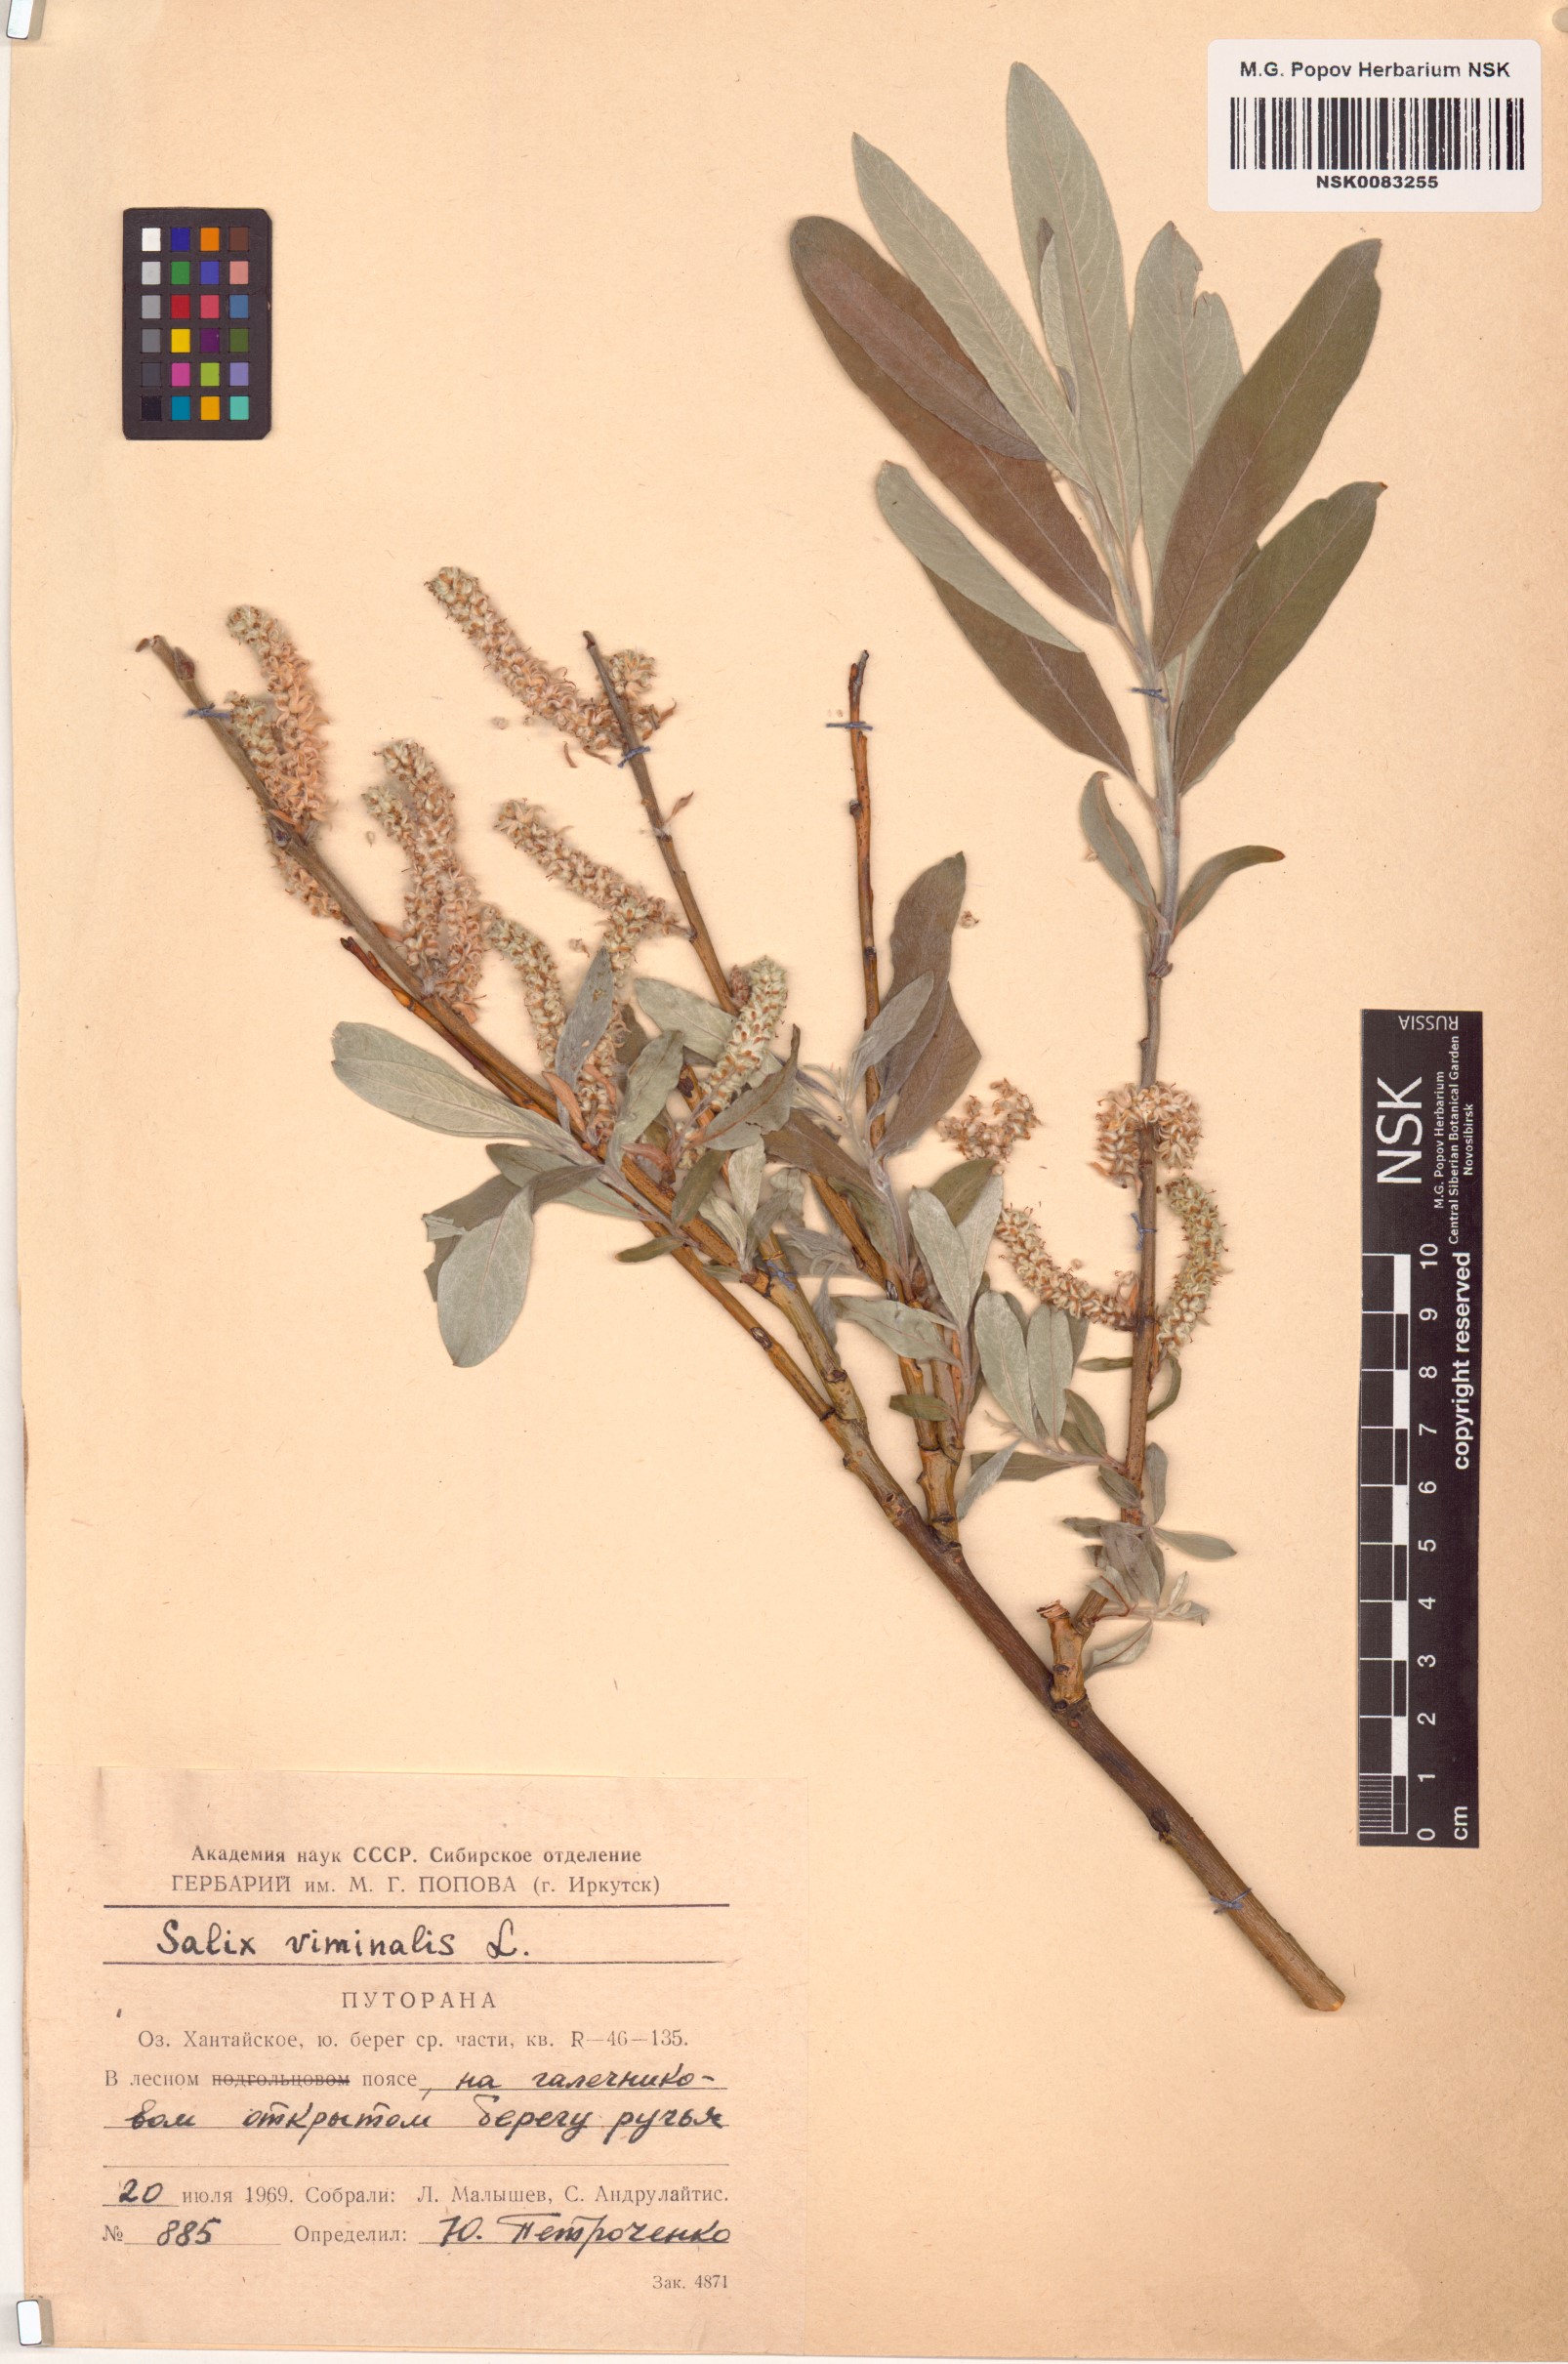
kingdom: Plantae
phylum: Tracheophyta
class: Magnoliopsida
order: Malpighiales
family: Salicaceae
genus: Salix
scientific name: Salix viminalis
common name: Osier
